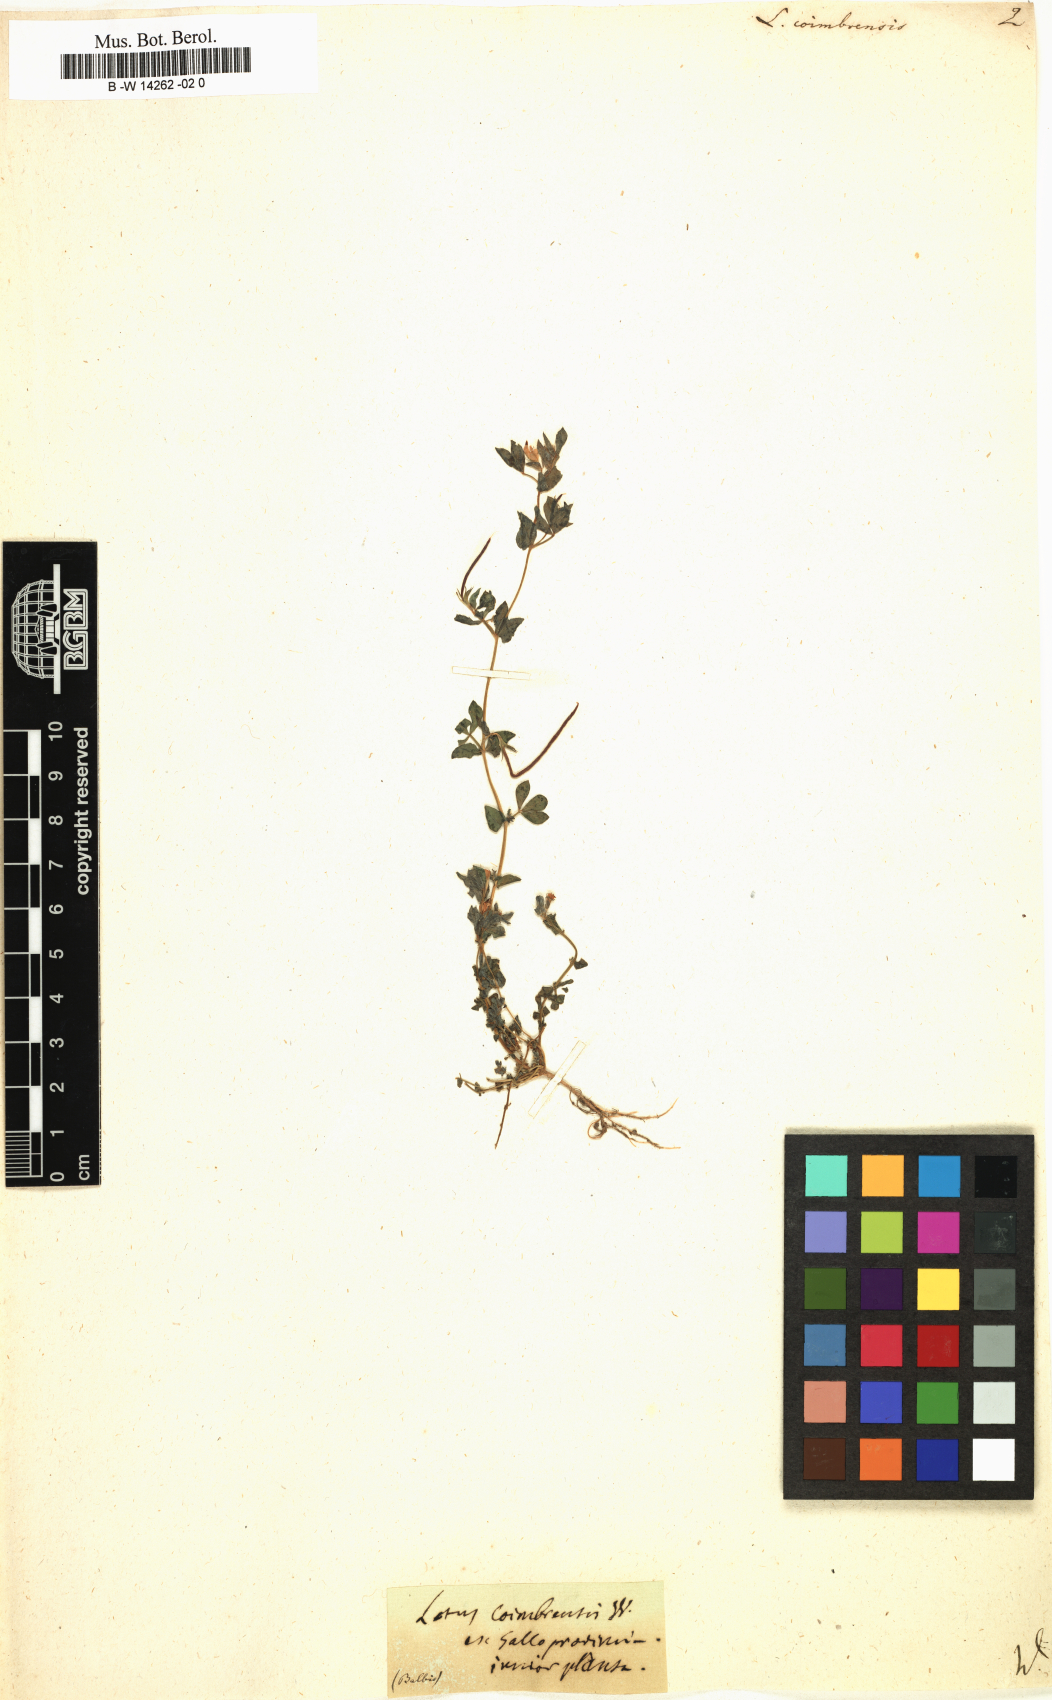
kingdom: Plantae
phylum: Tracheophyta
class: Magnoliopsida
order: Fabales
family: Fabaceae
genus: Lotus
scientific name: Lotus conimbricensis
